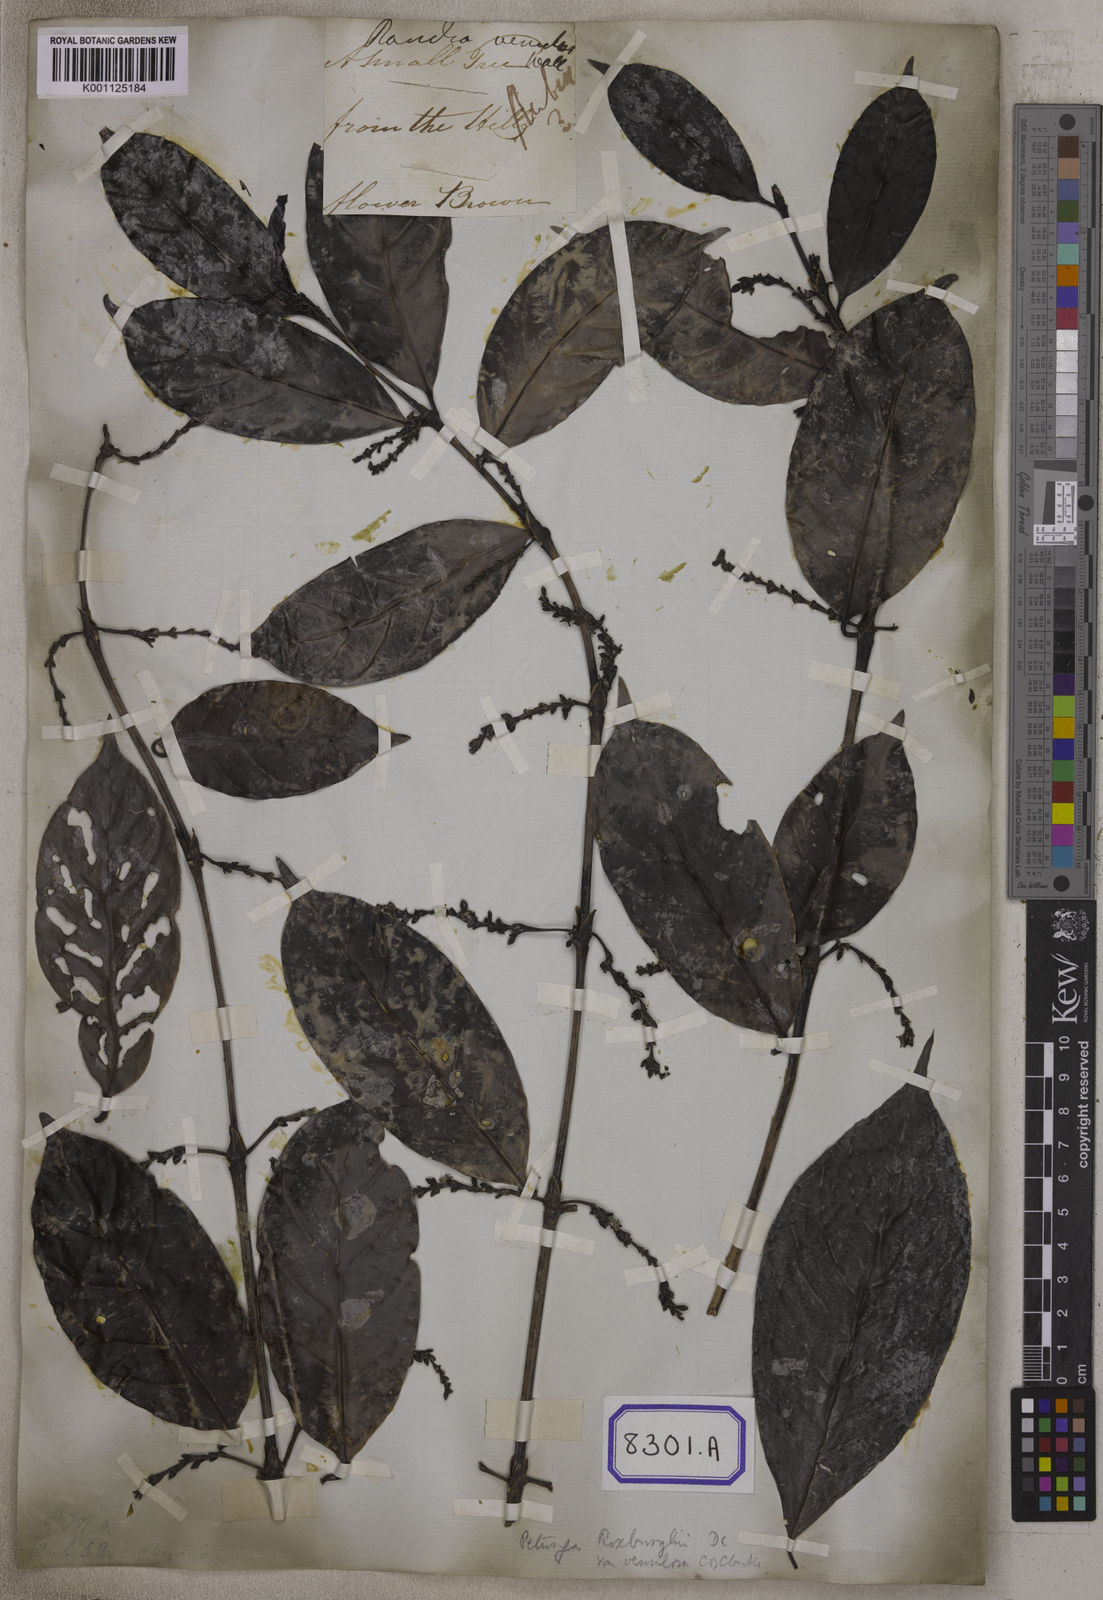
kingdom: Plantae
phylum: Tracheophyta
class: Magnoliopsida
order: Gentianales
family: Rubiaceae
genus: Hypobathrum
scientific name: Hypobathrum venulosum
